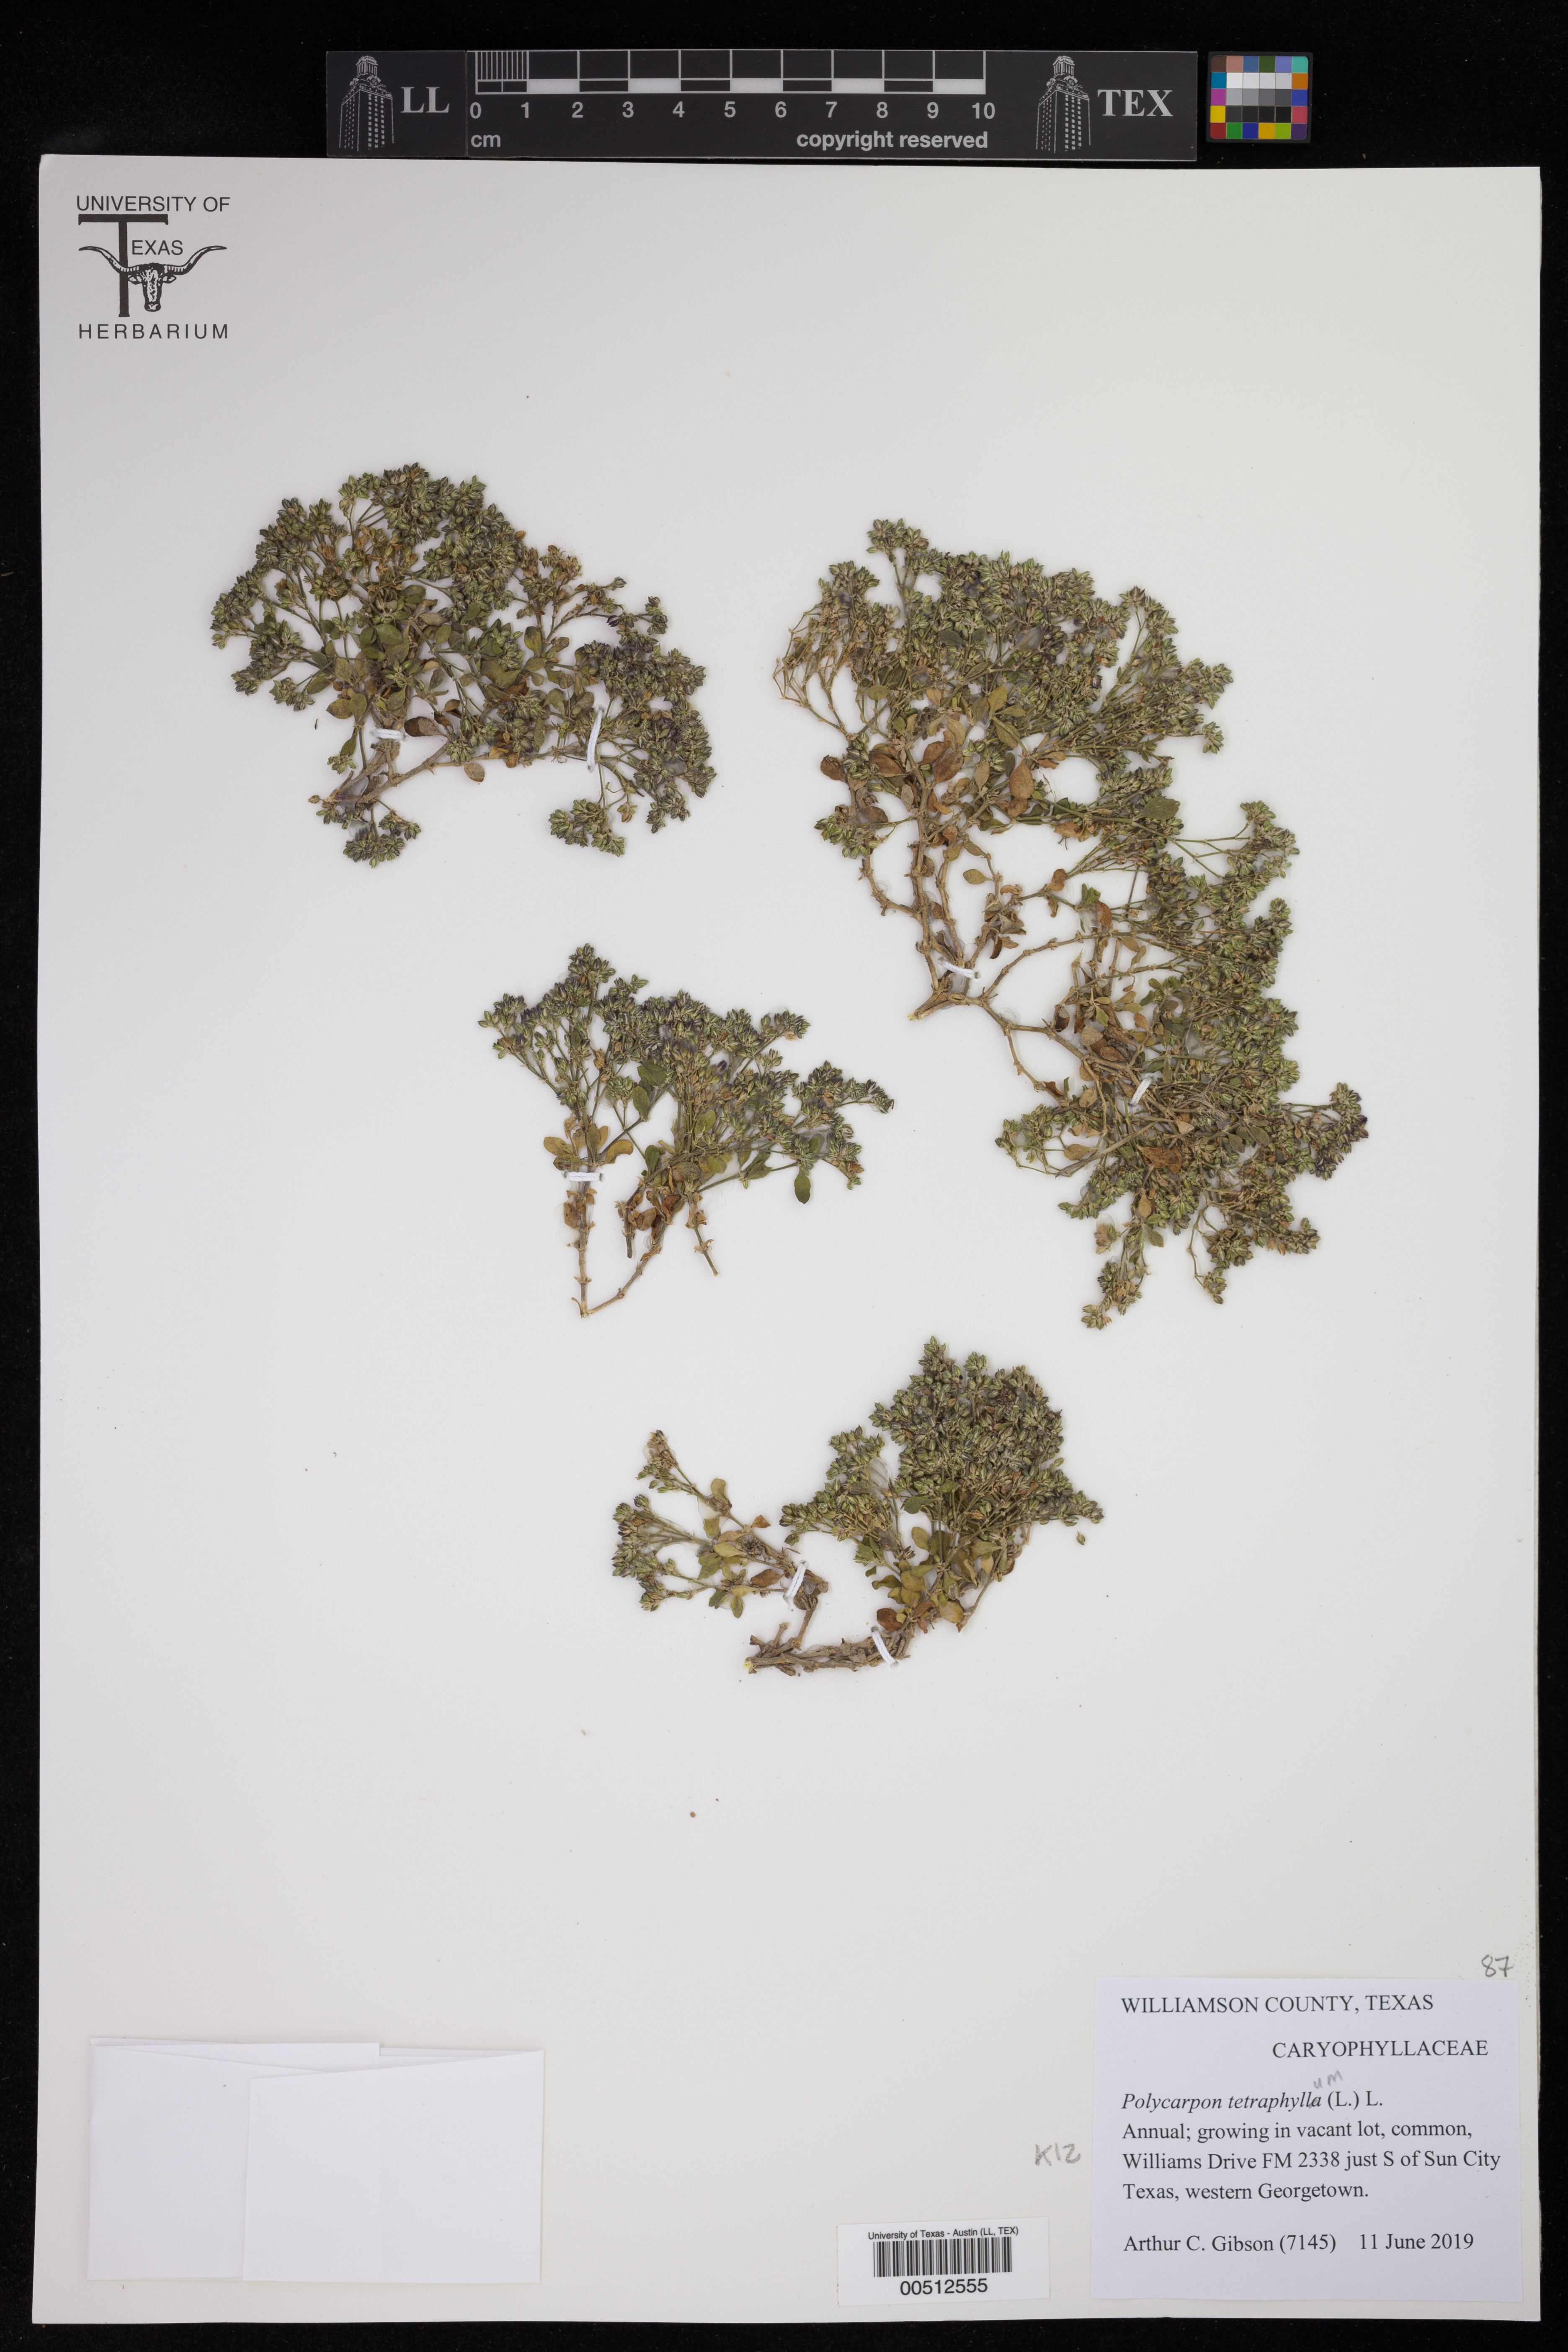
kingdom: Plantae
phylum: Tracheophyta
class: Magnoliopsida
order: Caryophyllales
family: Caryophyllaceae
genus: Polycarpon
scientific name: Polycarpon tetraphyllum
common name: Four-leaved all-seed
